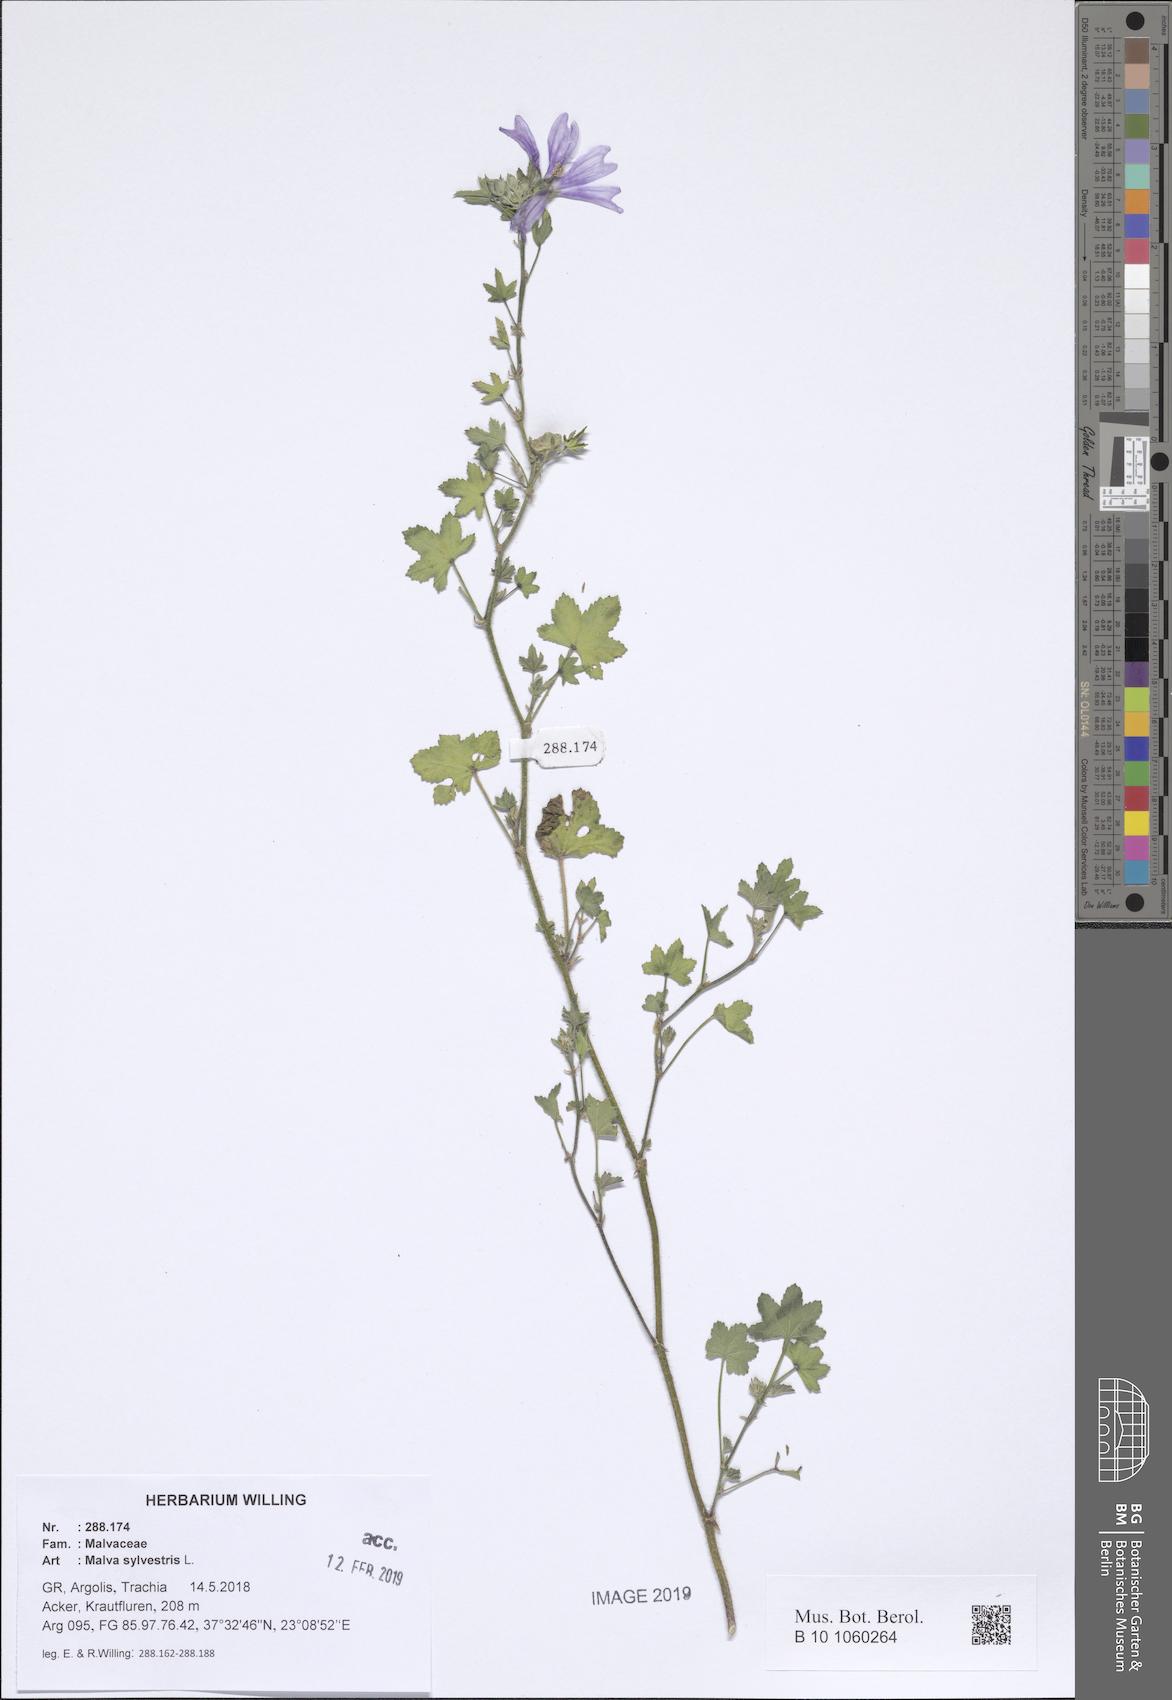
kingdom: Plantae
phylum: Tracheophyta
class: Magnoliopsida
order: Malvales
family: Malvaceae
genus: Malva
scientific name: Malva sylvestris
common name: Common mallow
